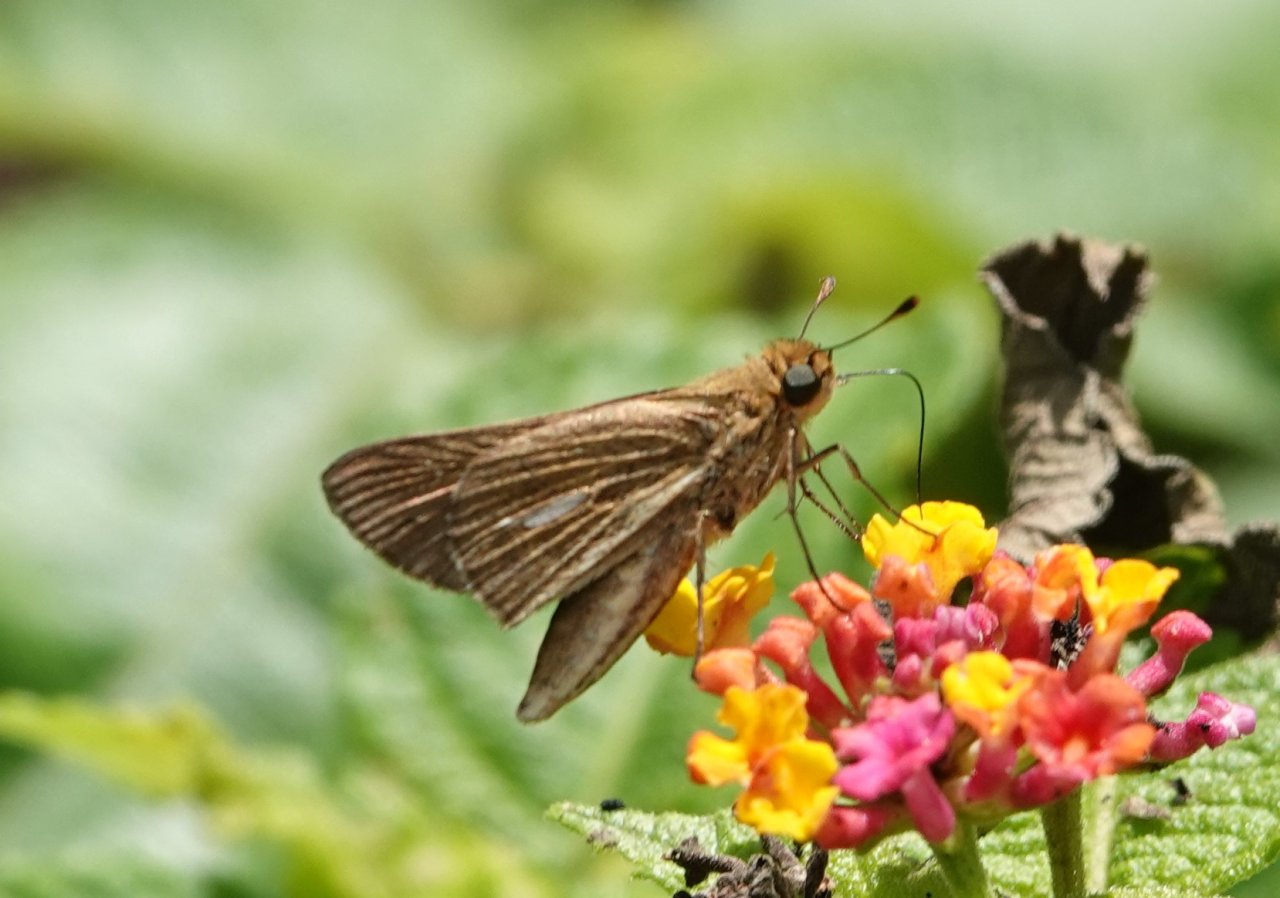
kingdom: Animalia
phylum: Arthropoda
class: Insecta
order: Lepidoptera
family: Hesperiidae
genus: Panoquina
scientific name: Panoquina panoquin
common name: Salt Marsh Skipper
